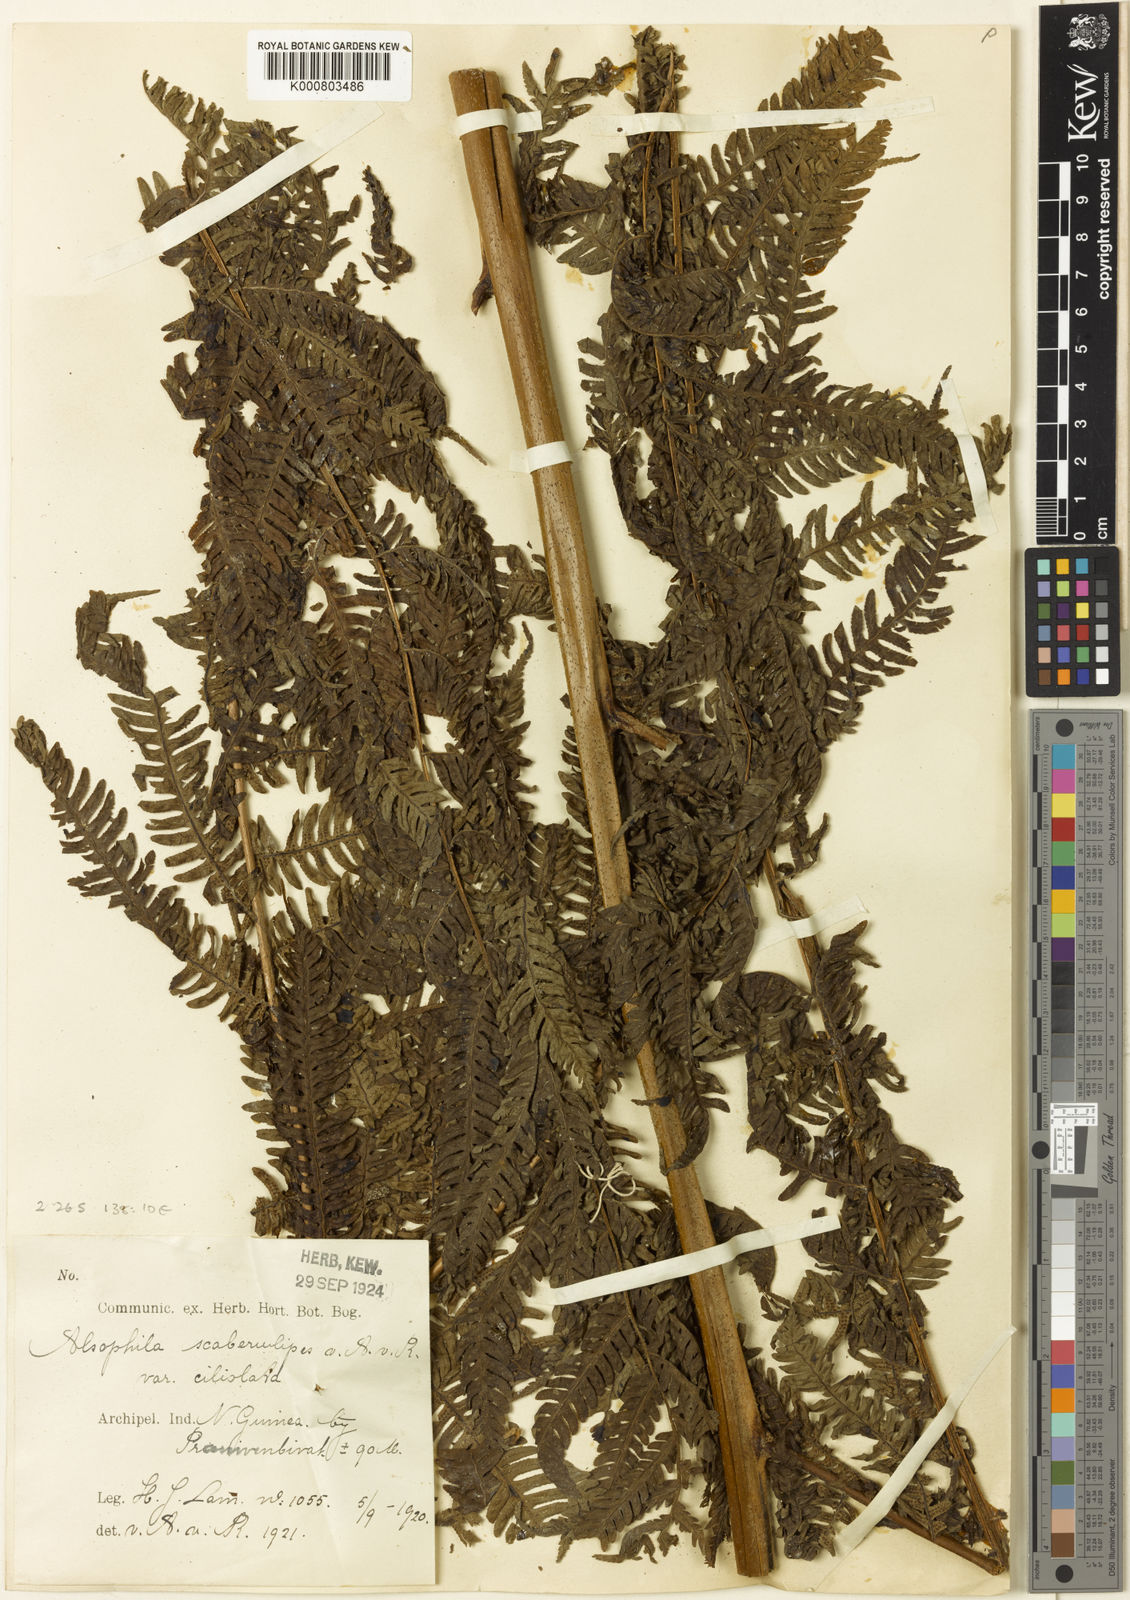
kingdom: Plantae
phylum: Tracheophyta
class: Polypodiopsida
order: Cyatheales
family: Cyatheaceae
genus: Sphaeropteris
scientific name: Sphaeropteris felina
